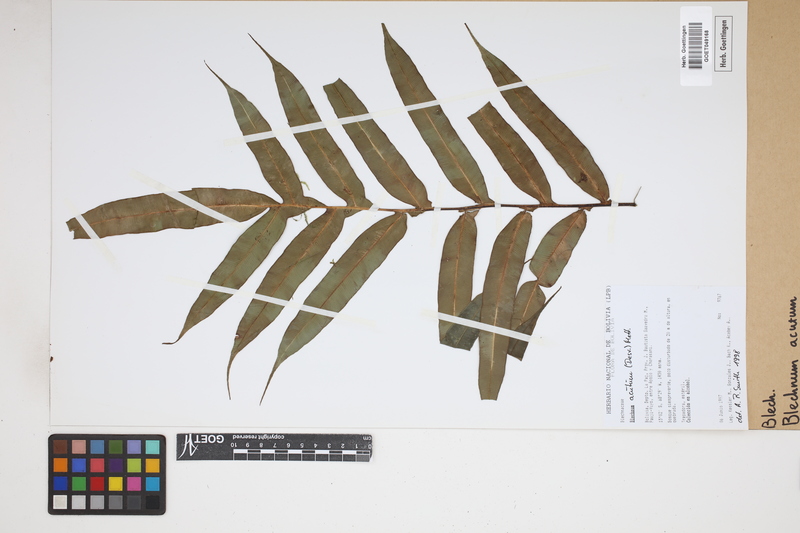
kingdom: Plantae
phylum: Tracheophyta
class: Polypodiopsida
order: Polypodiales
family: Blechnaceae
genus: Lomaridium
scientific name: Lomaridium acutum
